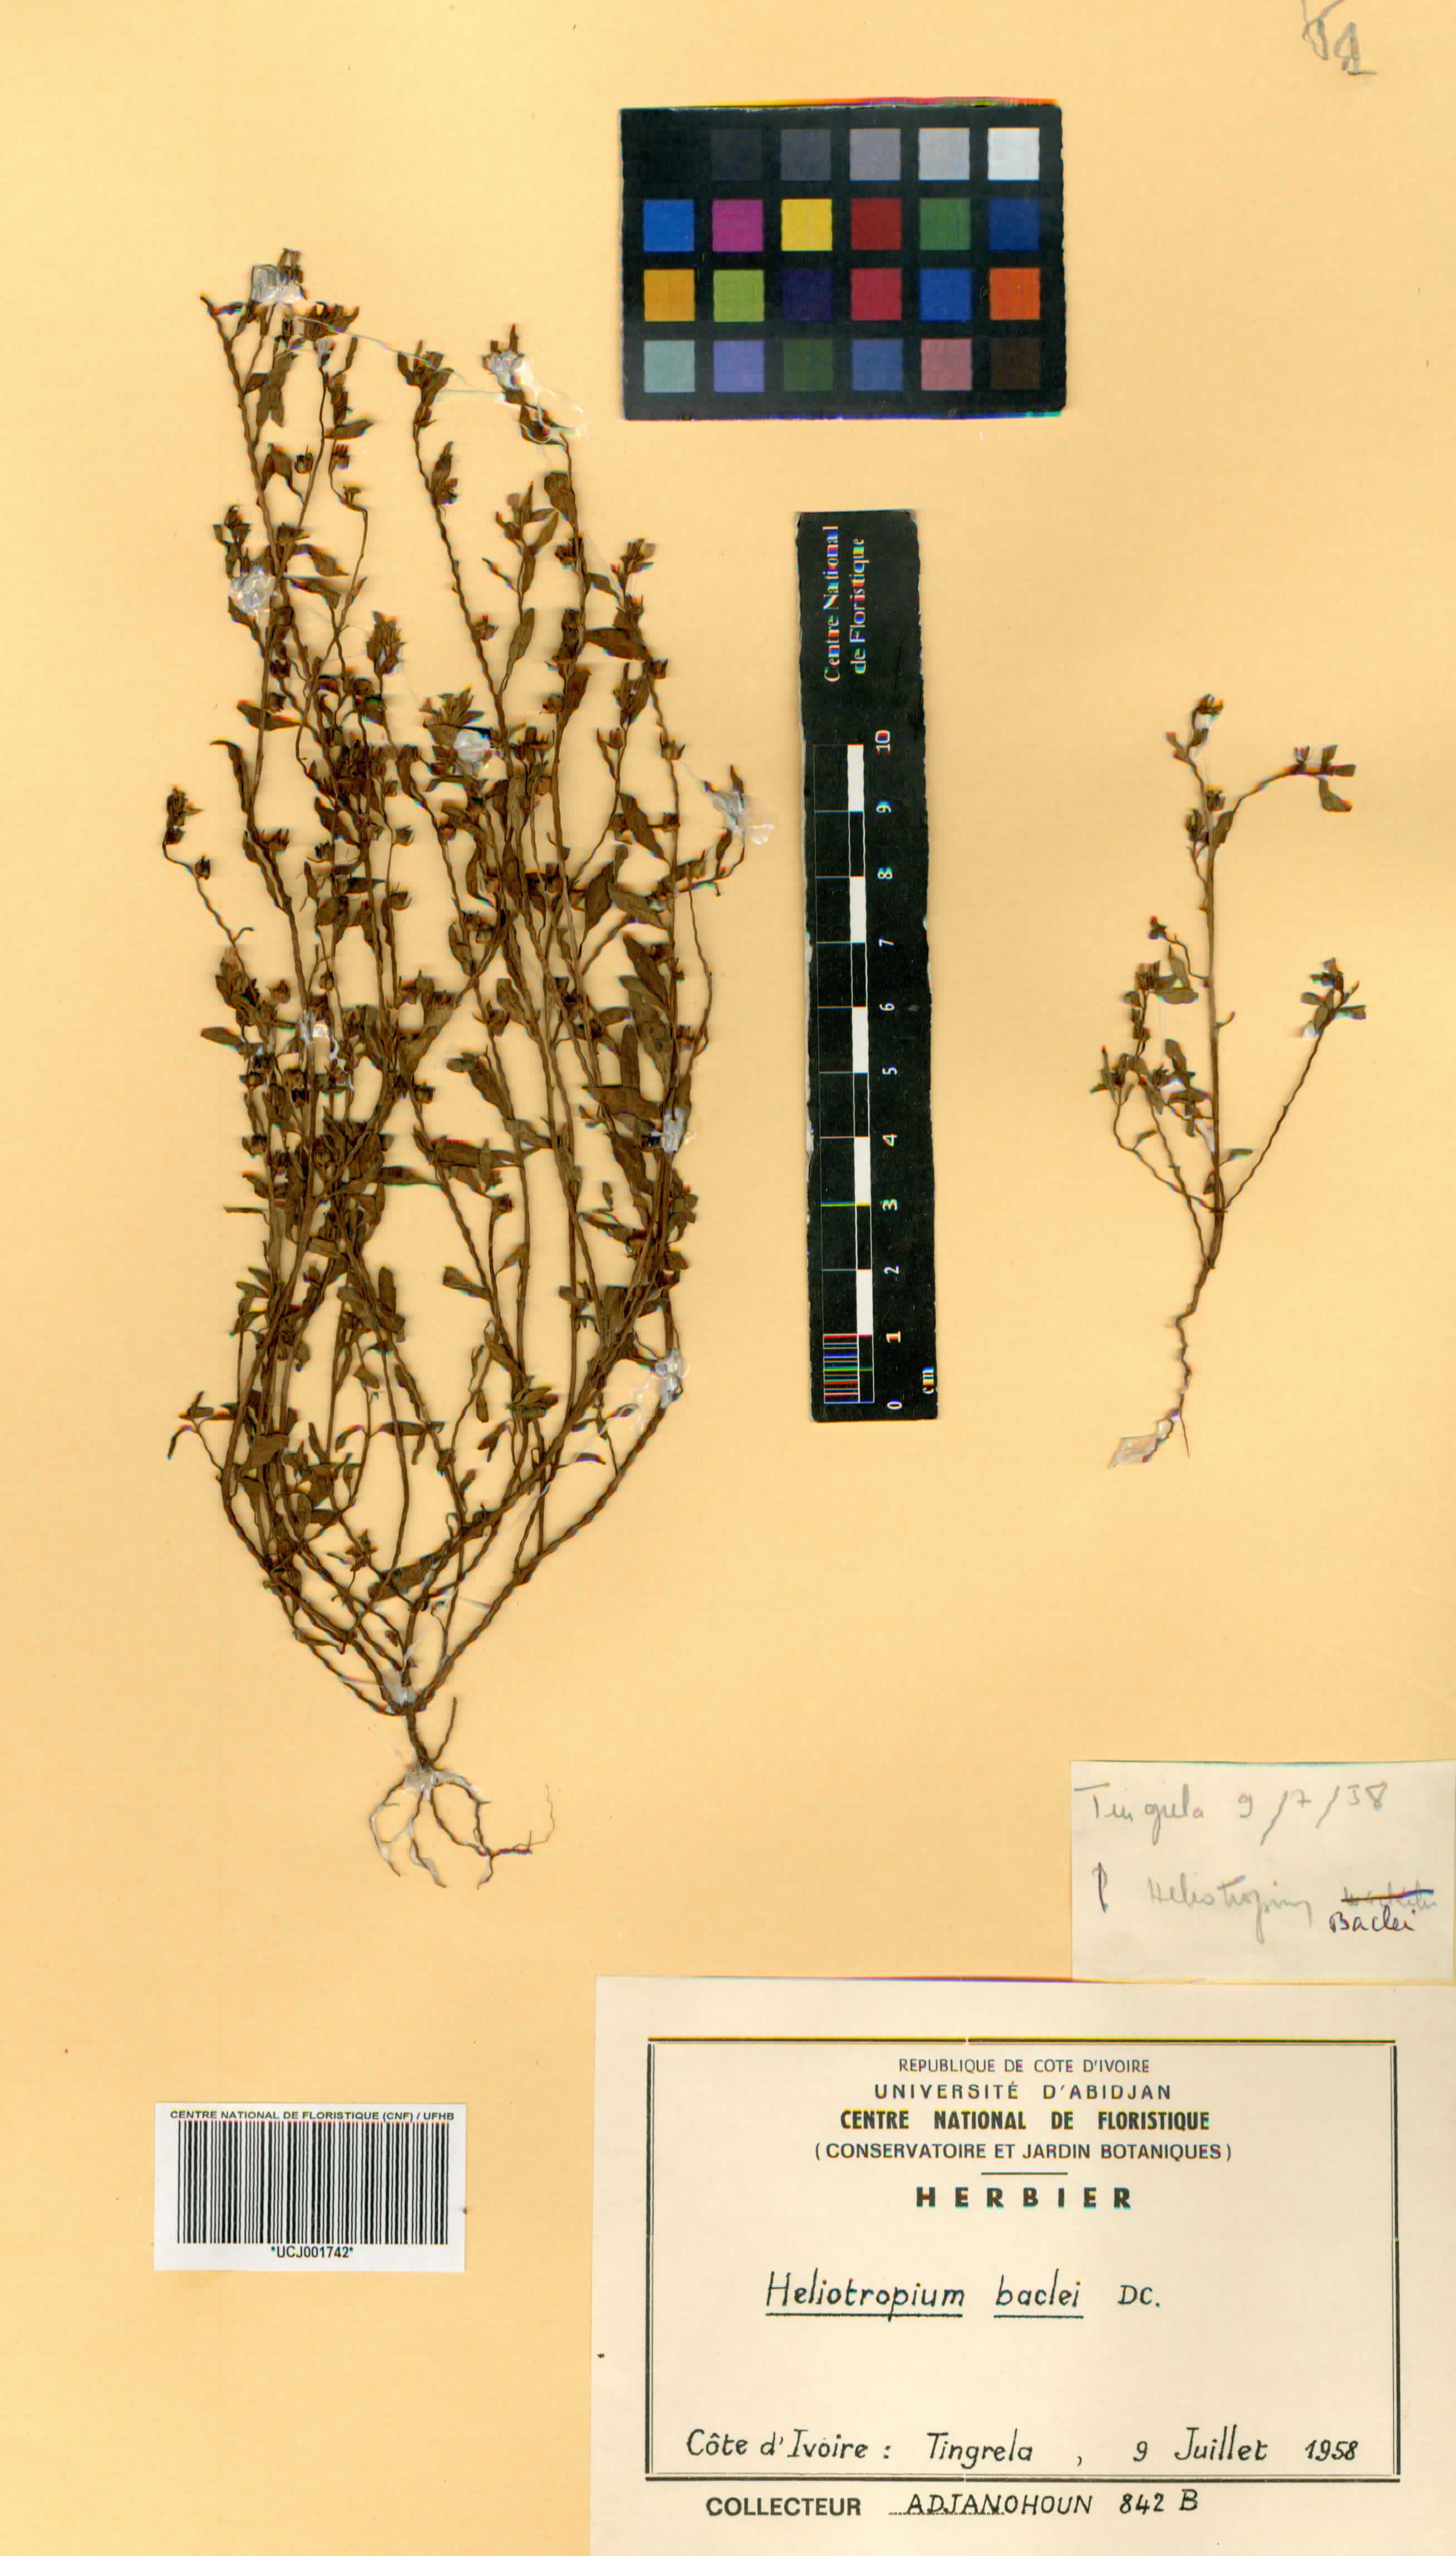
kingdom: Plantae
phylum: Tracheophyta
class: Magnoliopsida
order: Boraginales
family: Heliotropiaceae
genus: Euploca
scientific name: Euploca baclei
